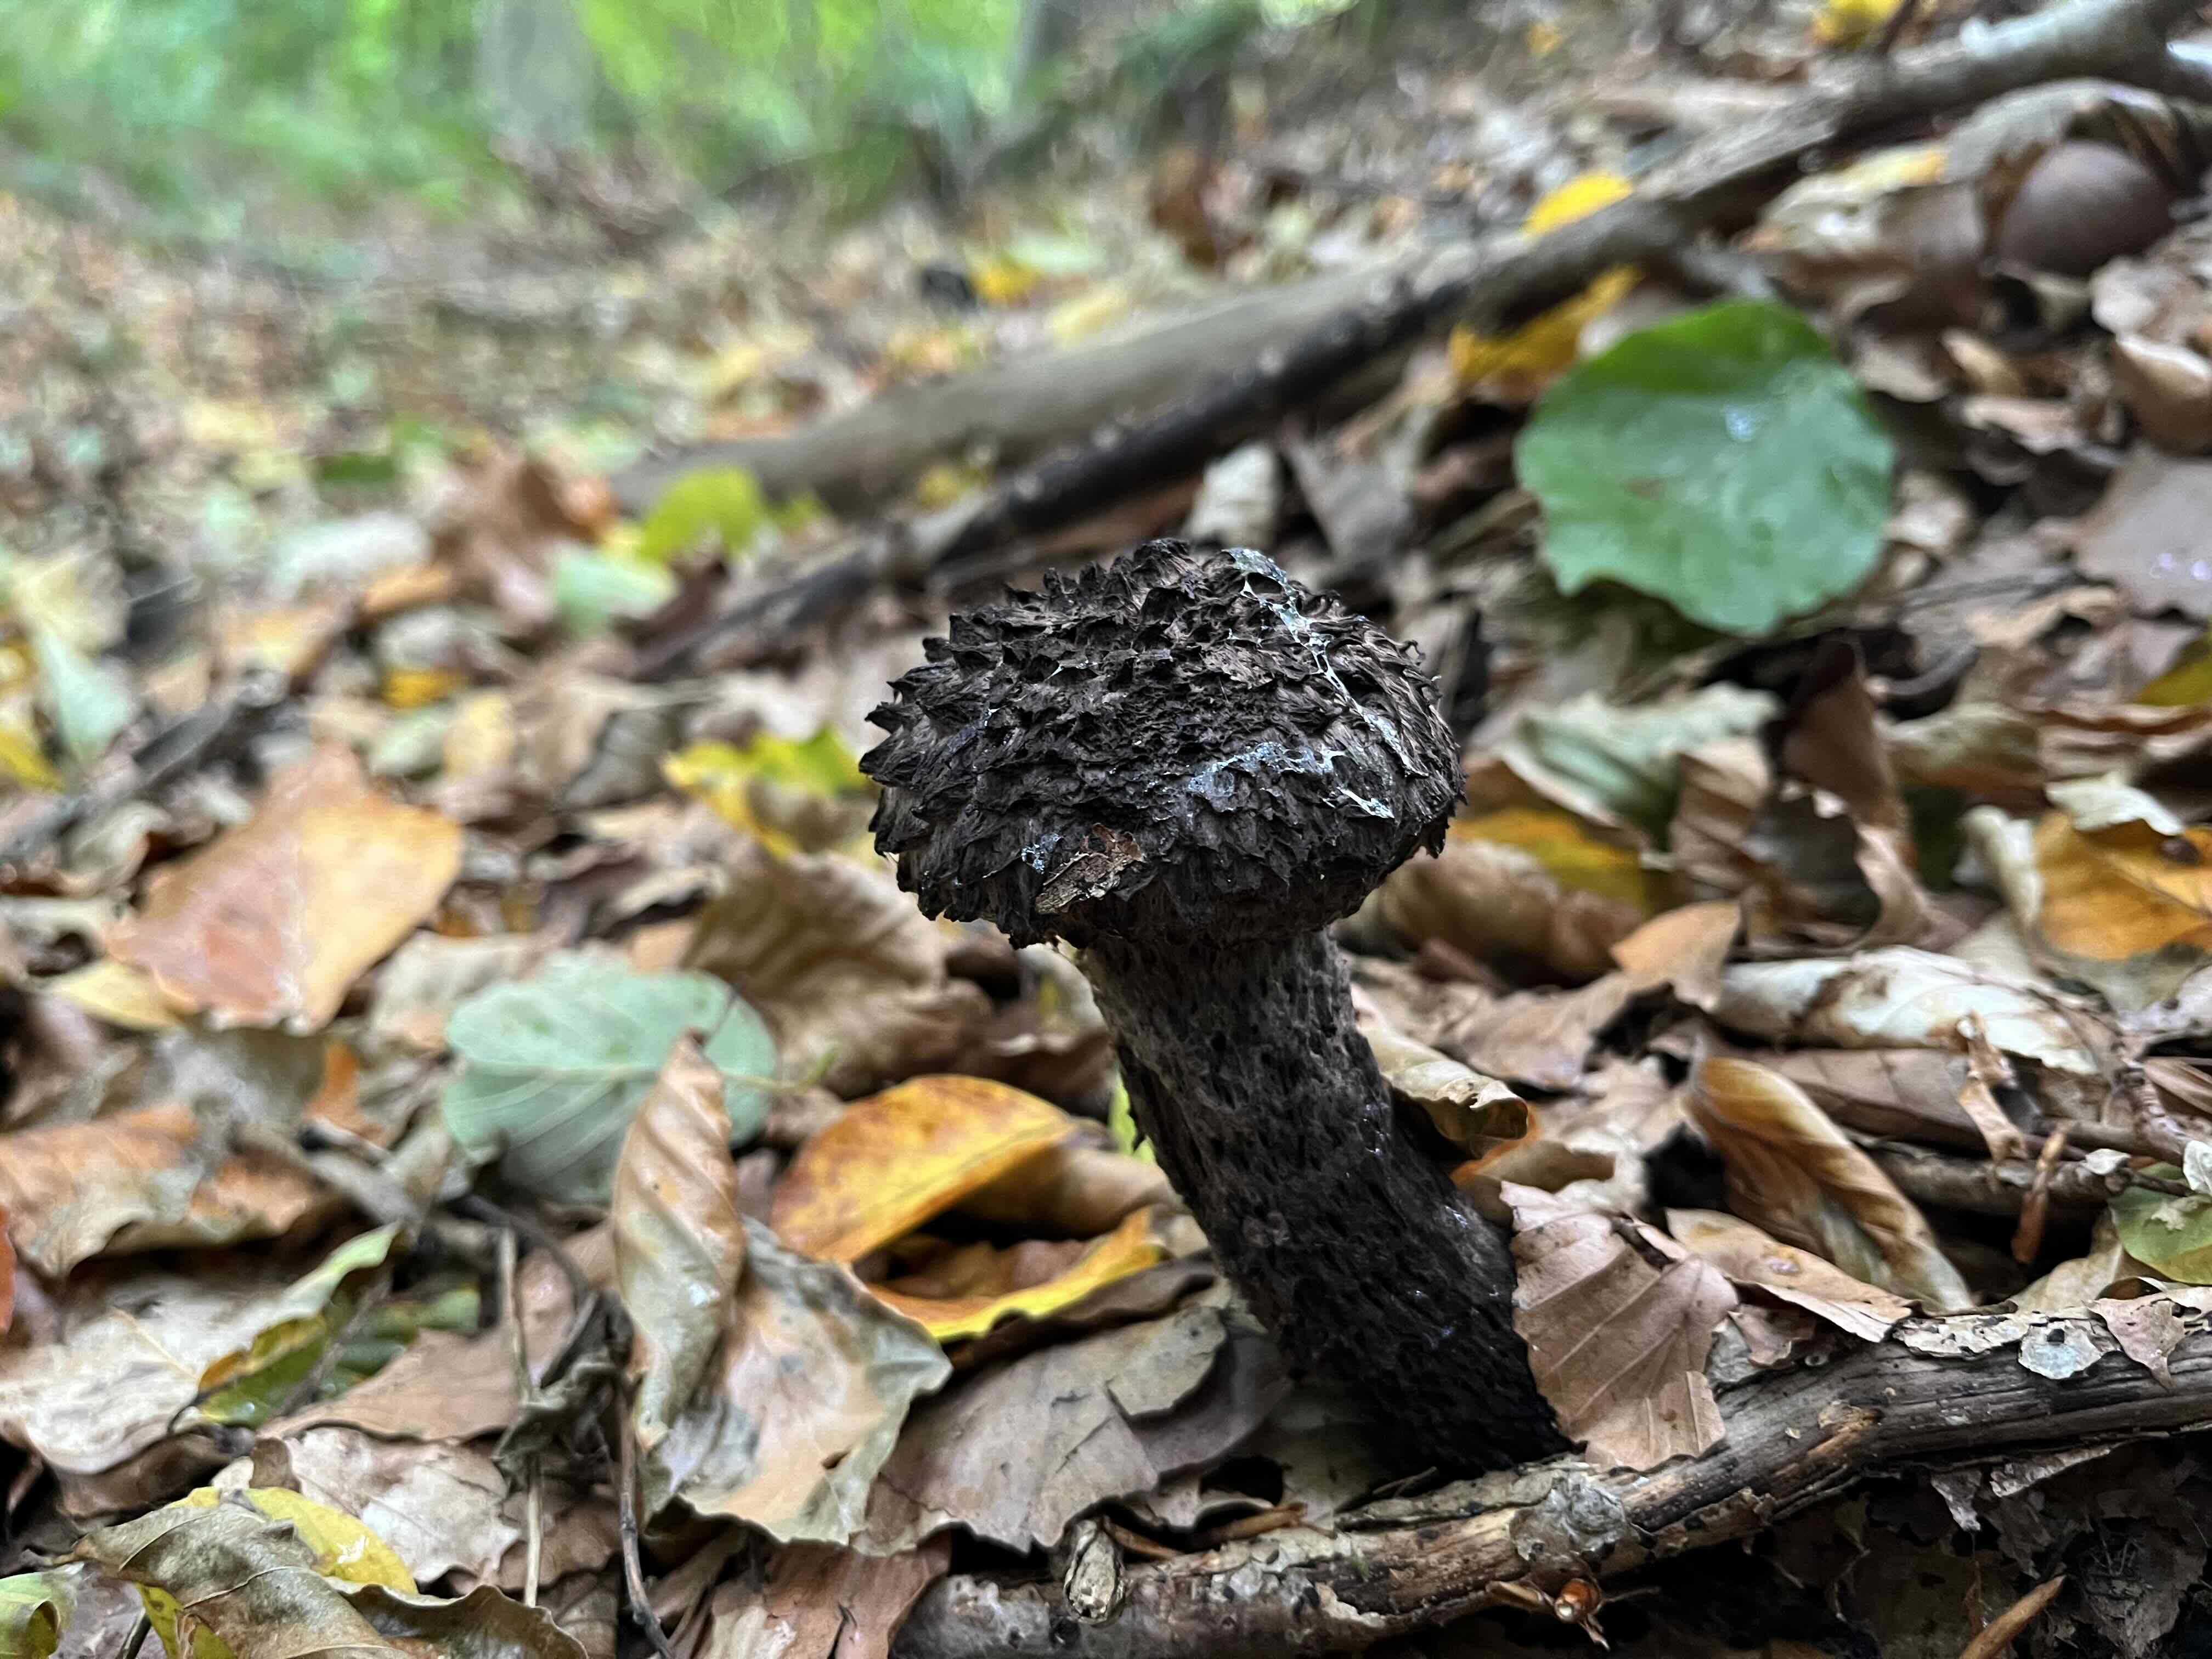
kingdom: Fungi
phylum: Basidiomycota
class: Agaricomycetes
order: Boletales
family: Boletaceae
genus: Strobilomyces
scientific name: Strobilomyces strobilaceus
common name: koglerørhat
